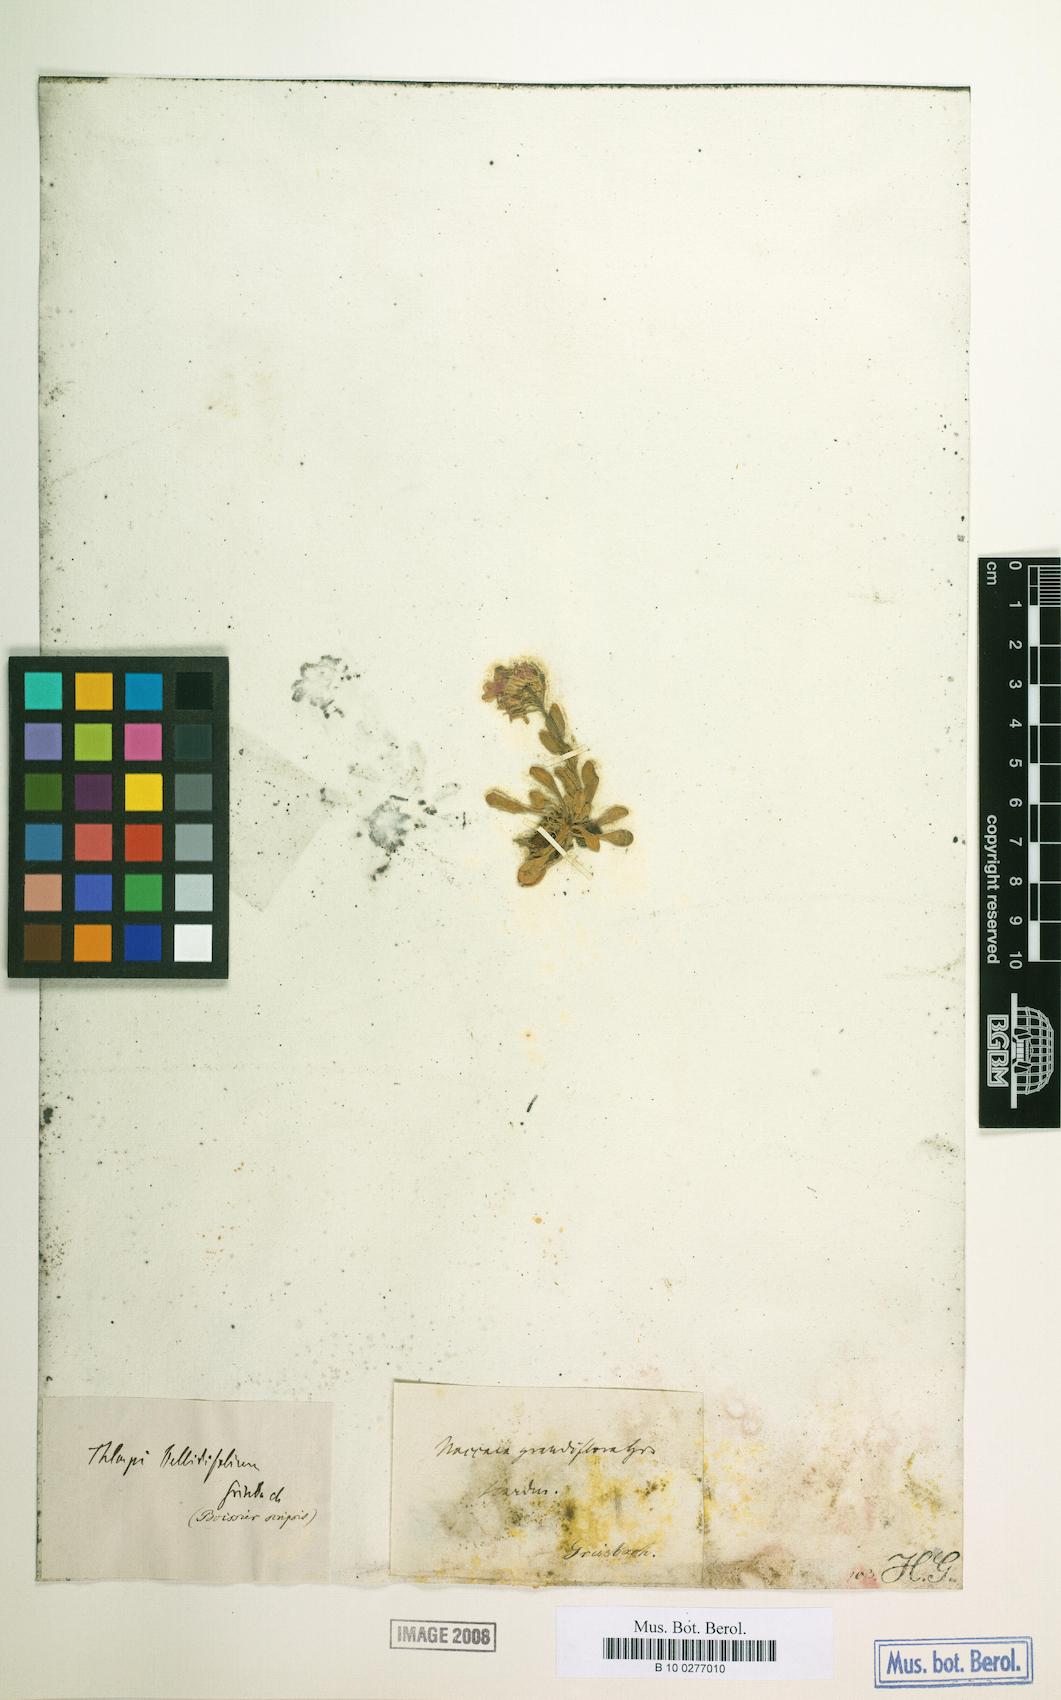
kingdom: Plantae
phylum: Tracheophyta
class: Magnoliopsida
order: Brassicales
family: Brassicaceae
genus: Noccaea
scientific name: Noccaea bellidifolia
